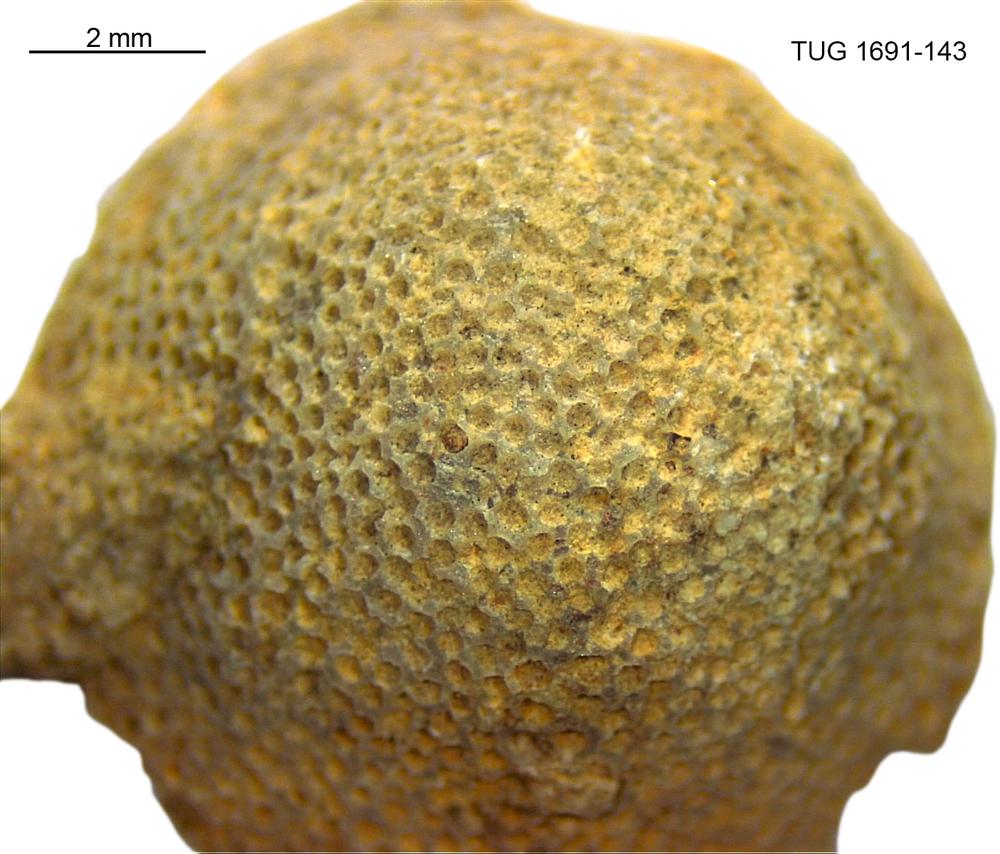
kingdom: Animalia
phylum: Bryozoa
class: Stenolaemata
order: Trepostomatida
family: Diplotrypidae
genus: Diplotrypa
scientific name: Diplotrypa
